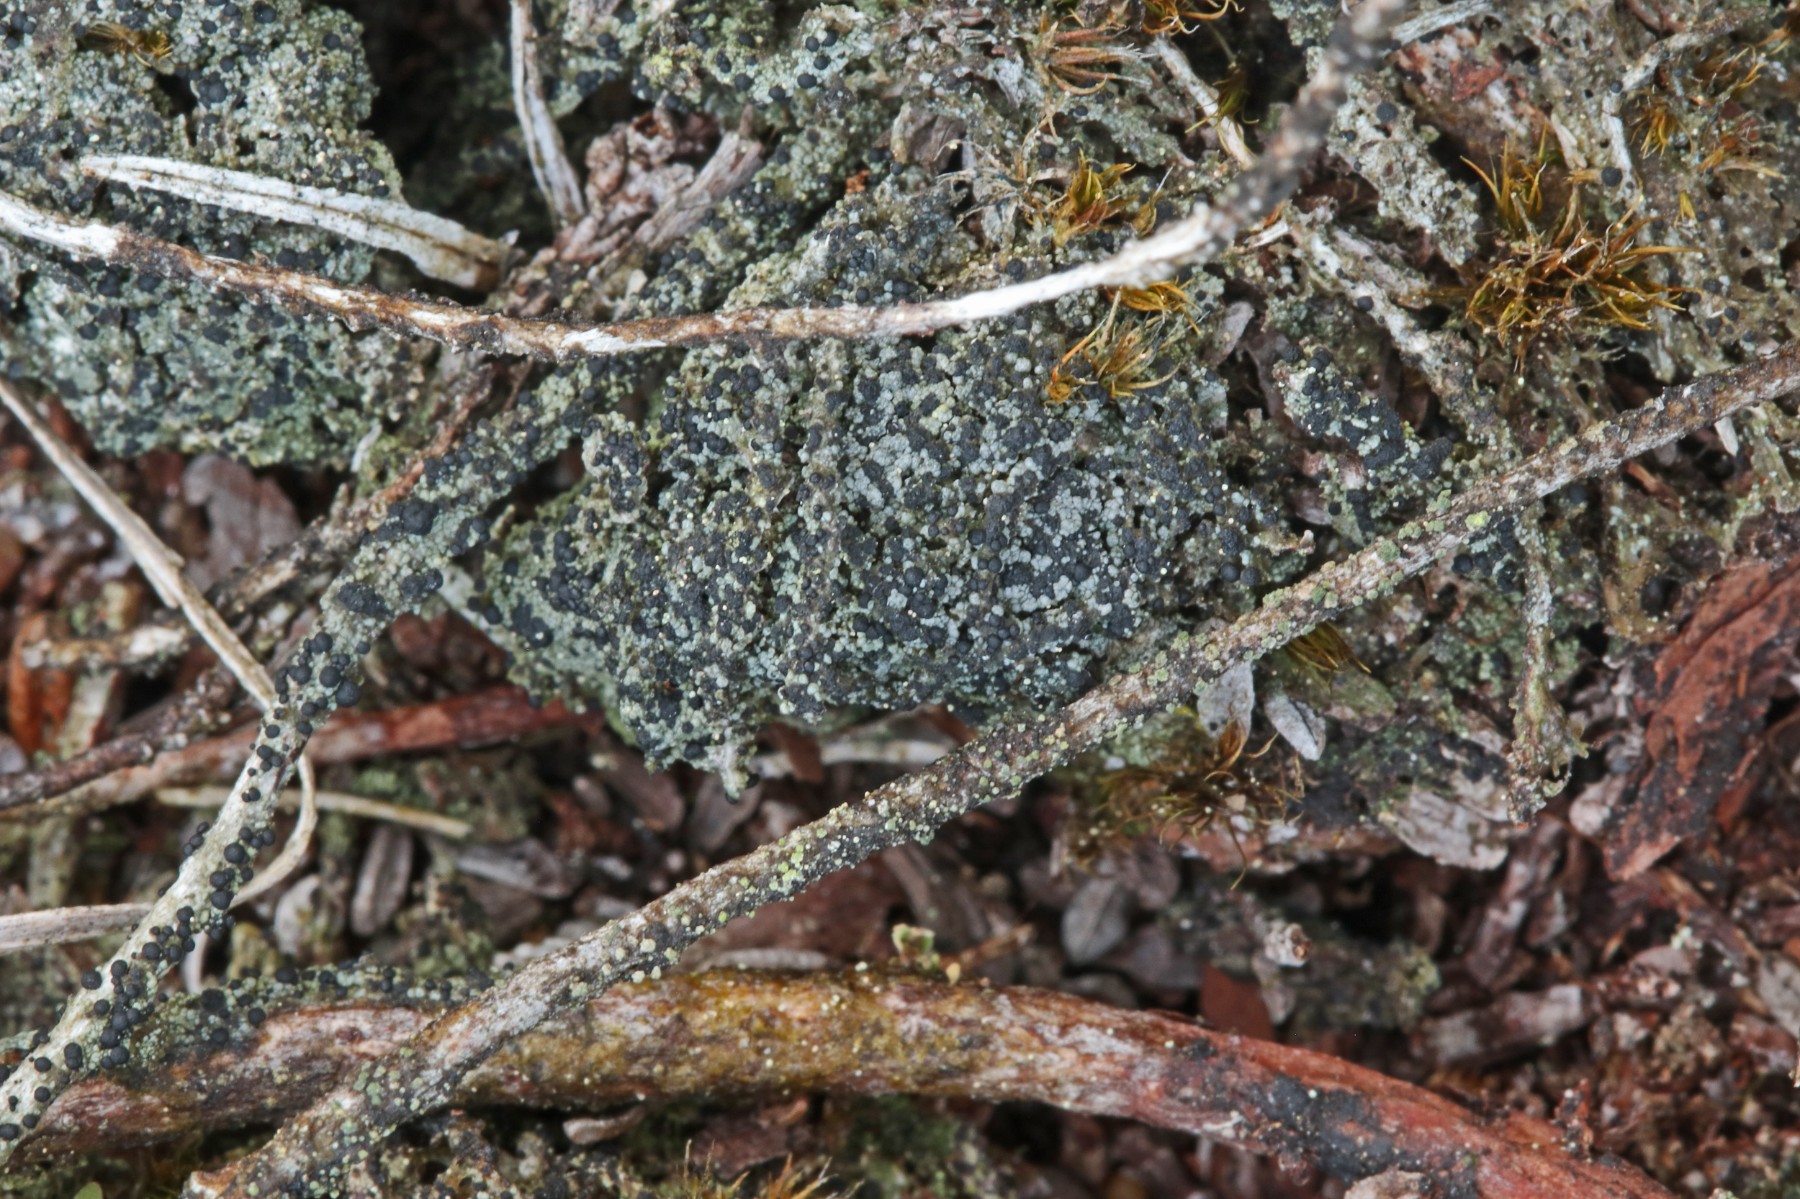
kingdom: Fungi
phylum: Ascomycota
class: Lecanoromycetes
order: Lecanorales
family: Byssolomataceae
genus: Micarea
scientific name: Micarea lignaria
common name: tørve-knaplav
